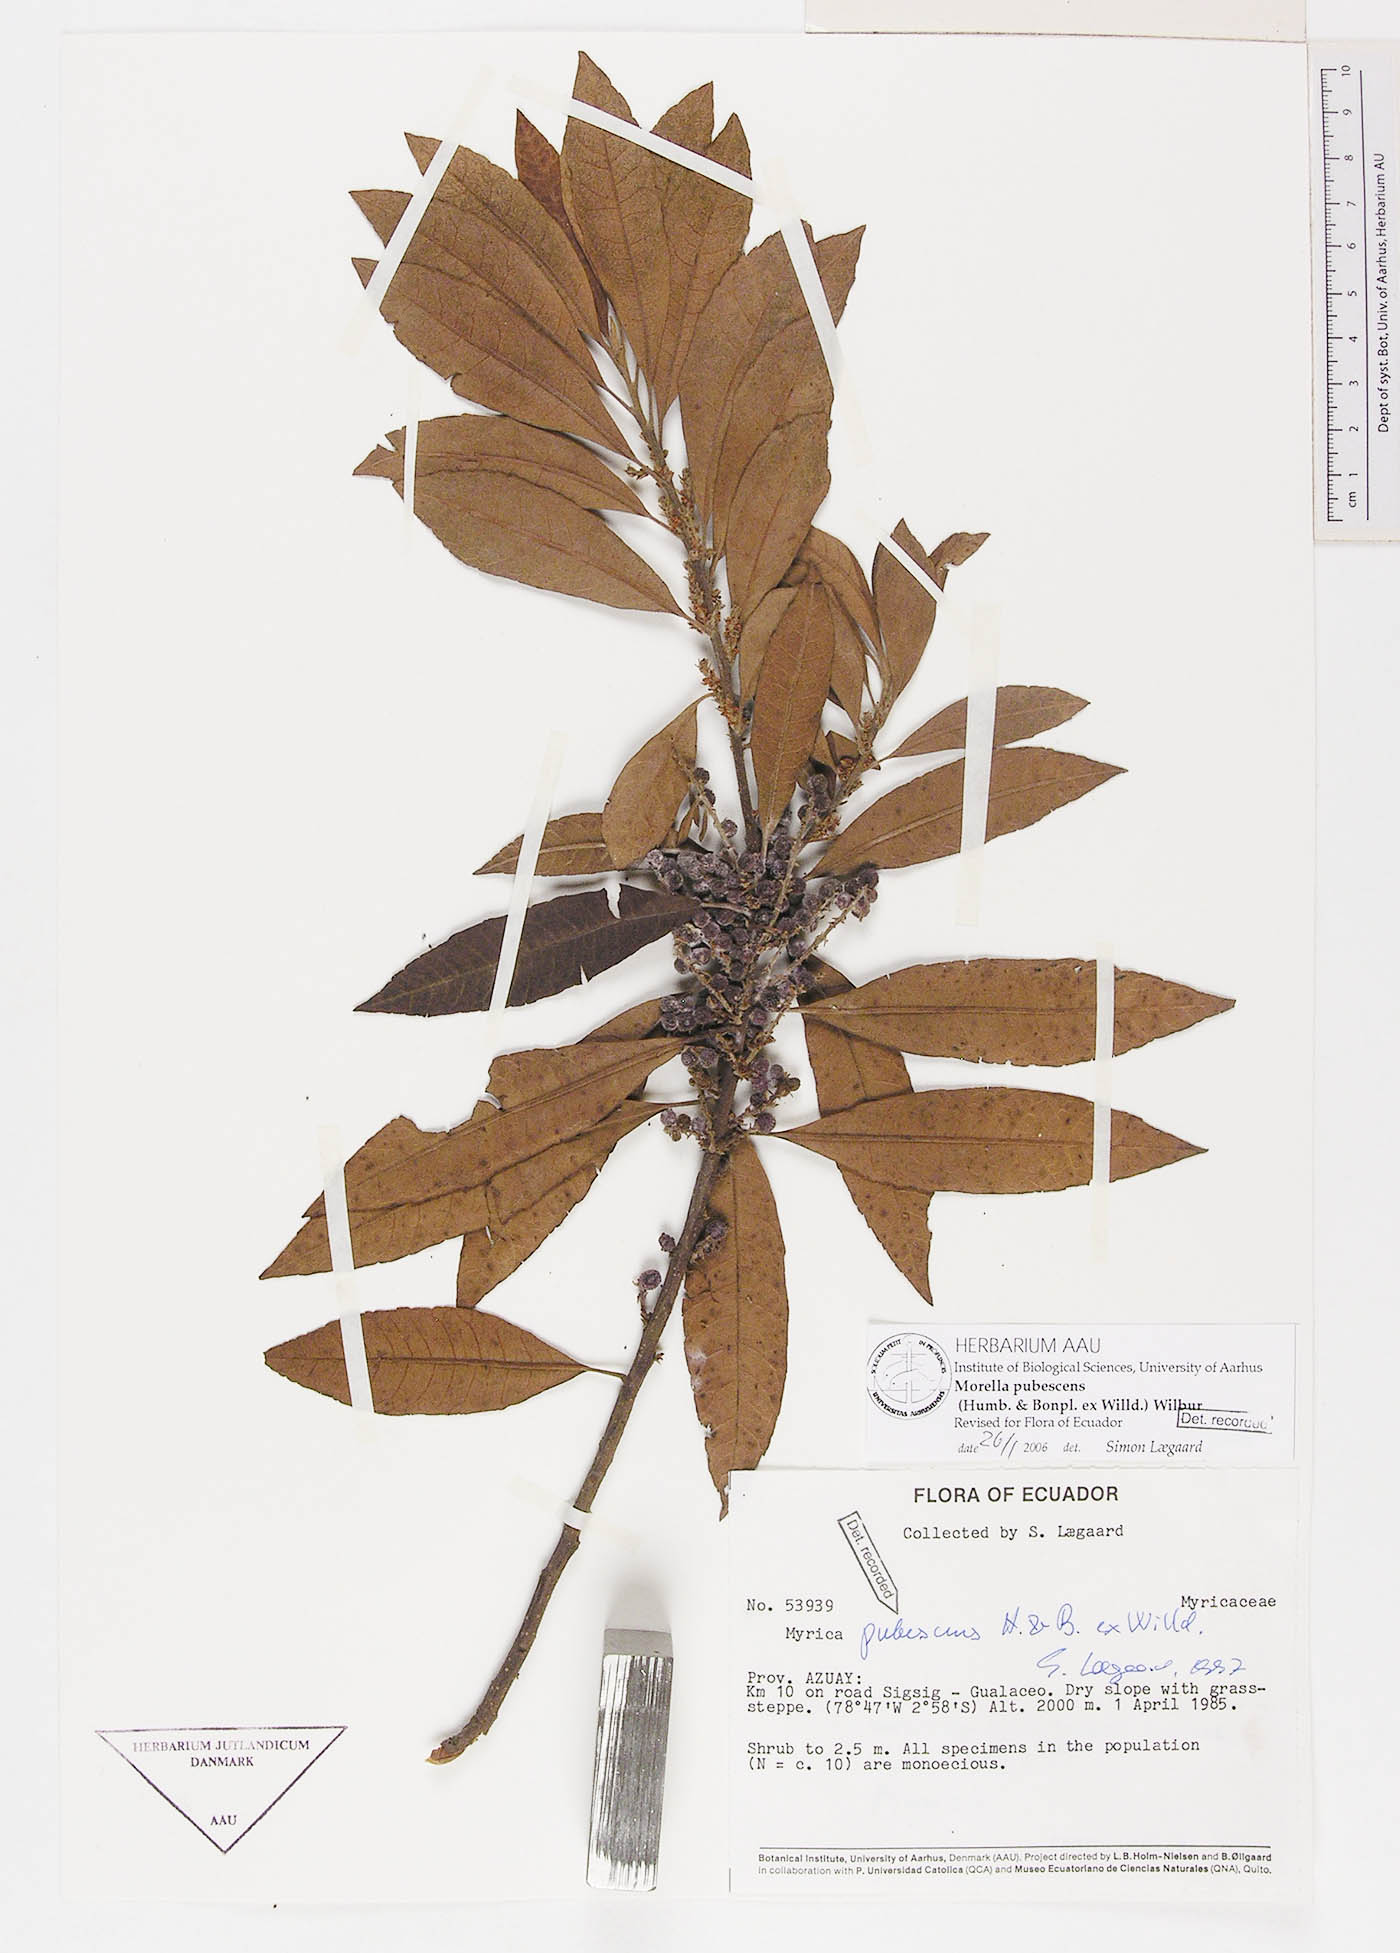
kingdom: Plantae
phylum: Tracheophyta
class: Magnoliopsida
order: Fagales
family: Myricaceae
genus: Morella
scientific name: Morella pubescens
